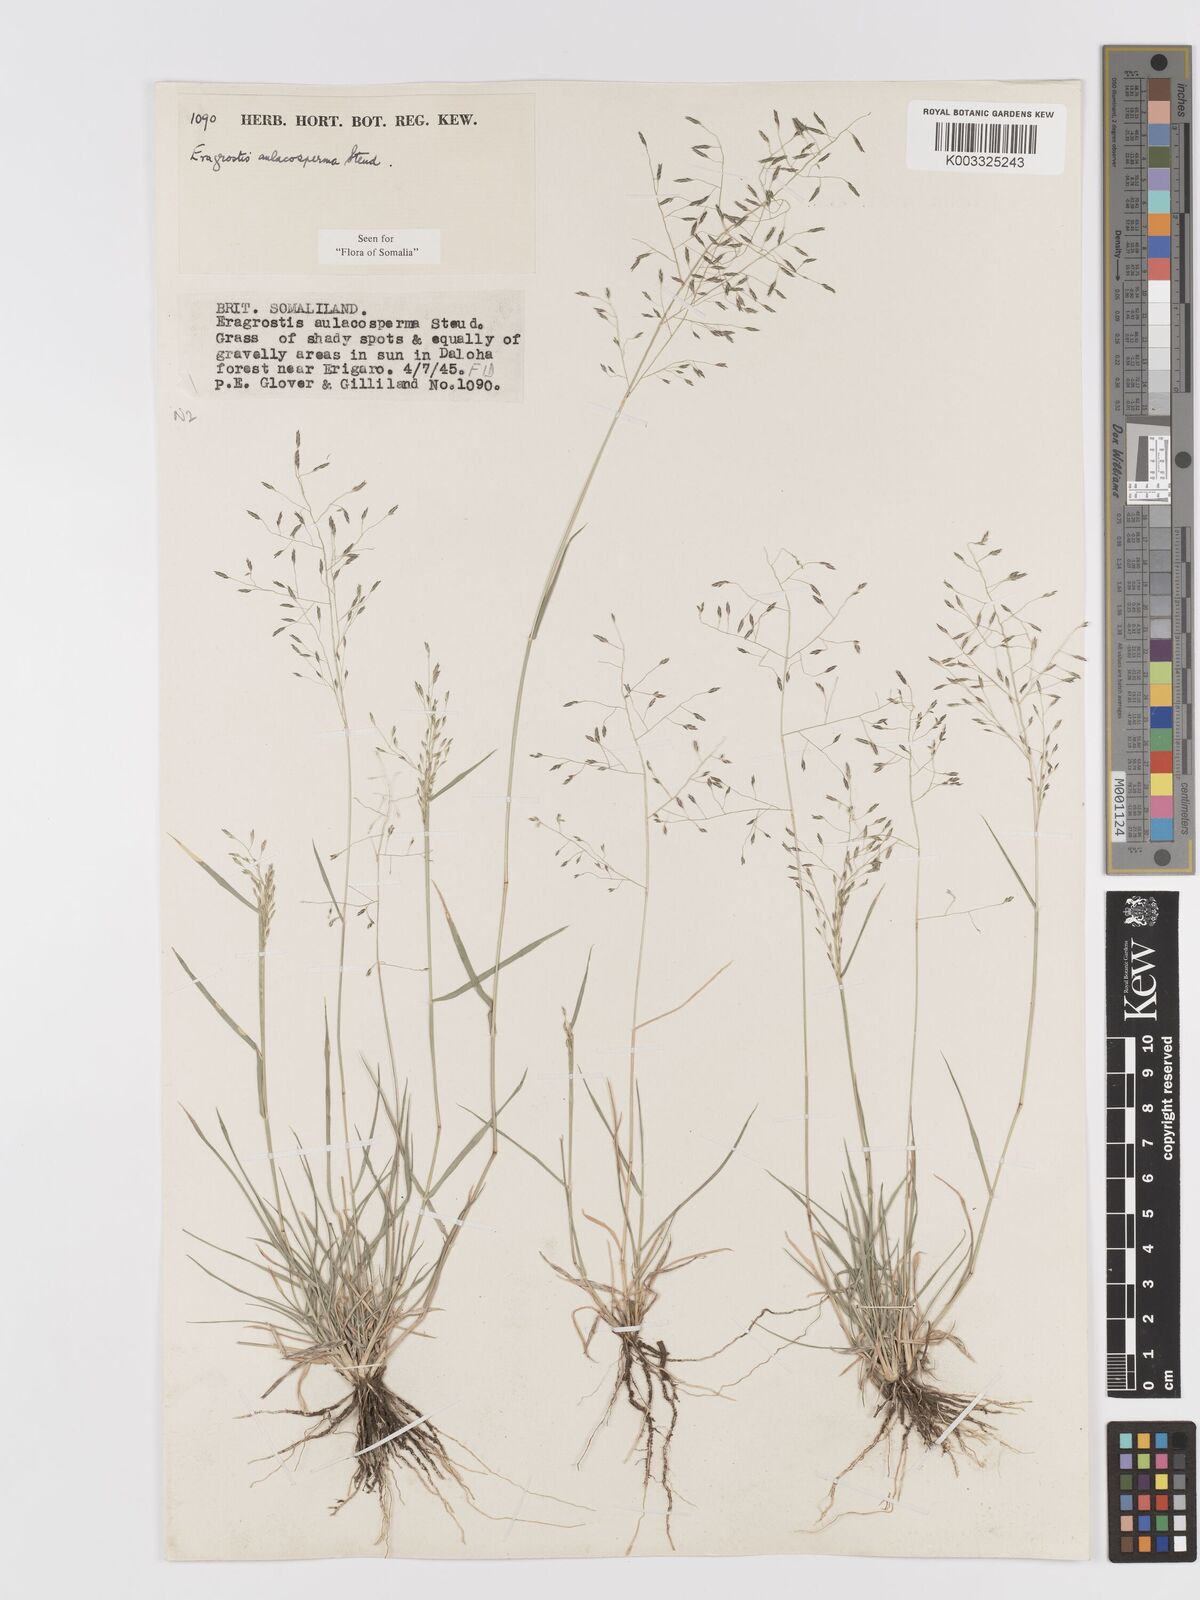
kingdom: Plantae
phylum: Tracheophyta
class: Liliopsida
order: Poales
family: Poaceae
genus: Eragrostis
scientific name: Eragrostis papposa
